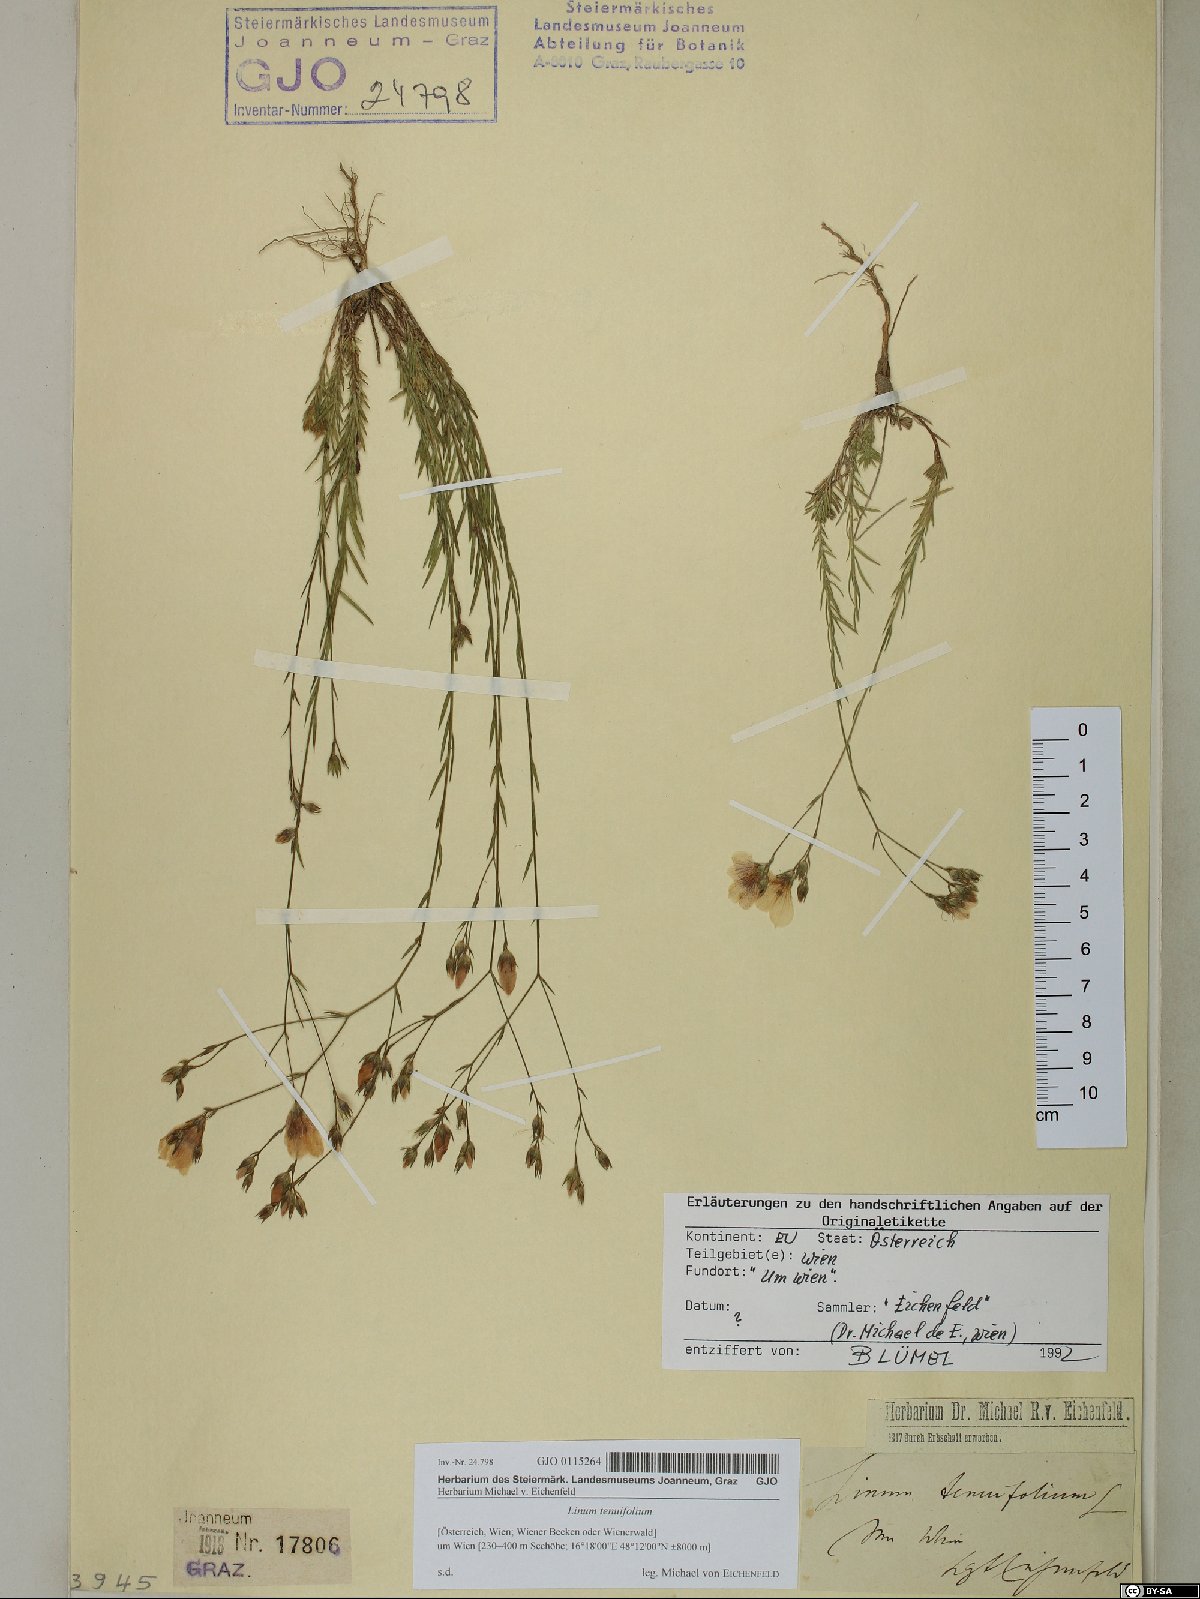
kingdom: Plantae
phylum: Tracheophyta
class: Magnoliopsida
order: Malpighiales
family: Linaceae
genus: Linum
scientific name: Linum tenuifolium
